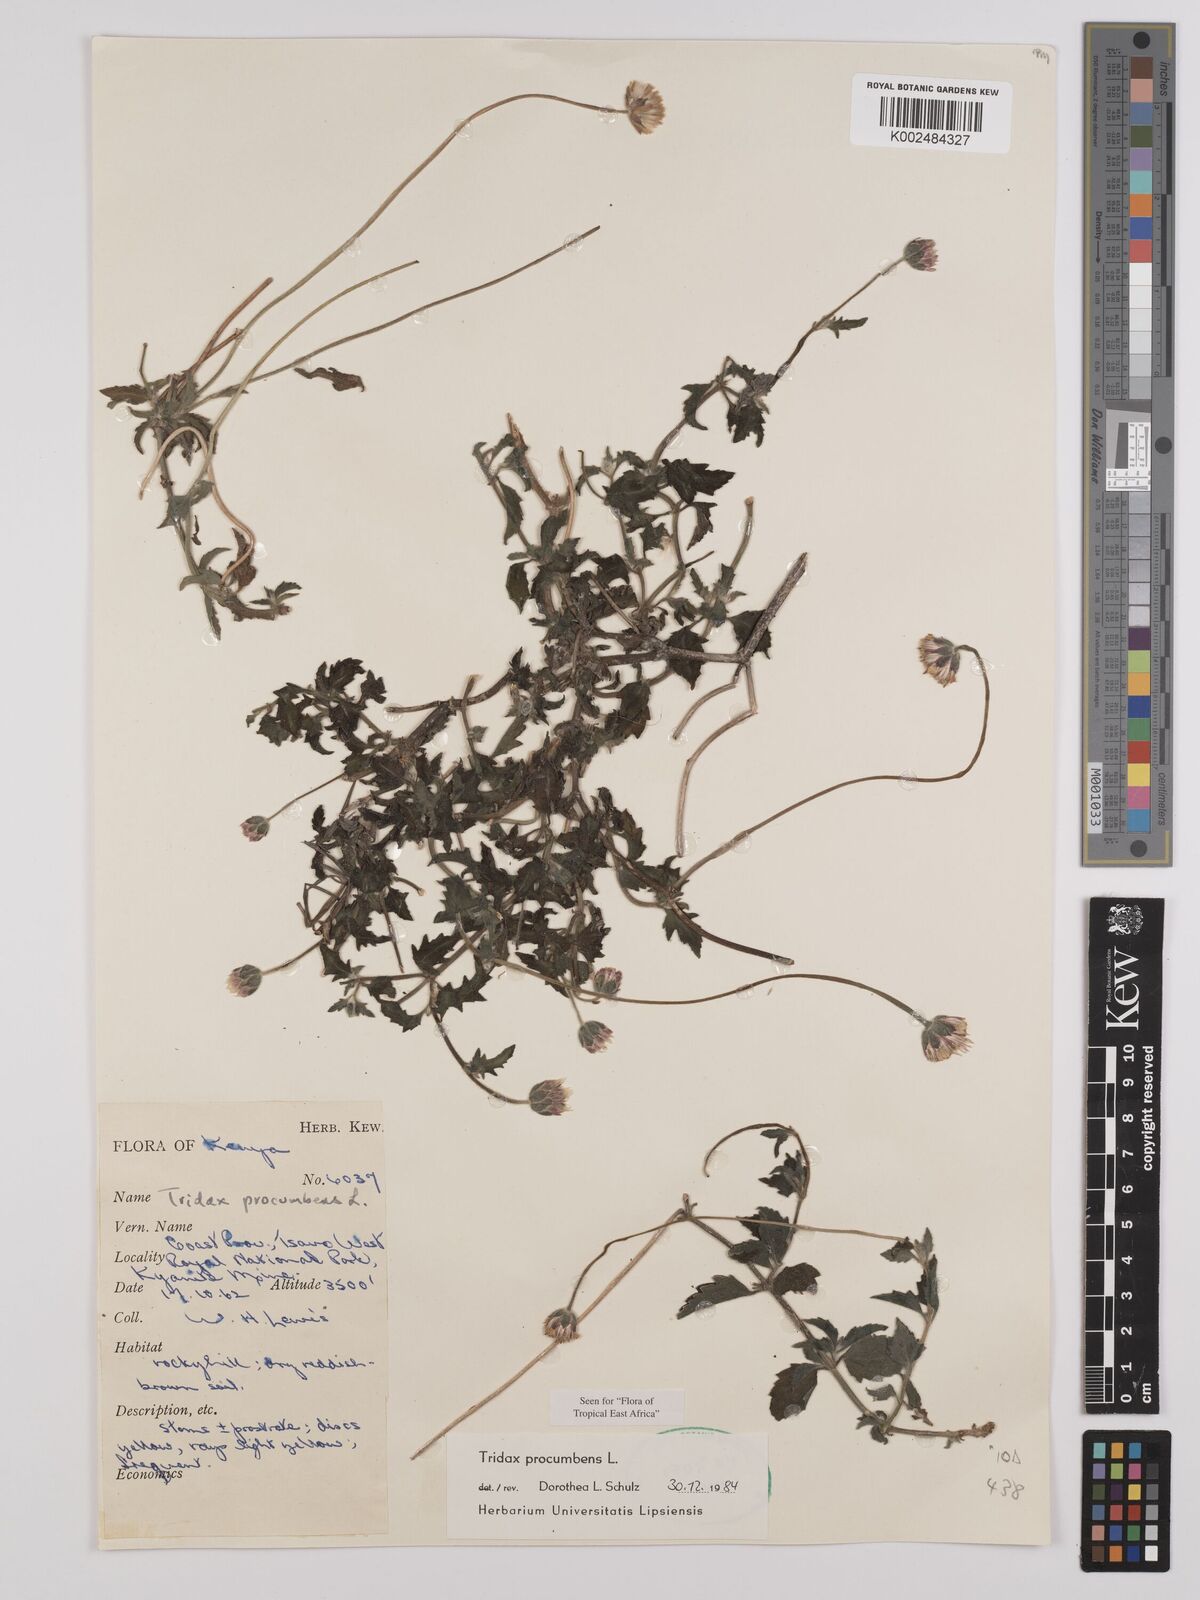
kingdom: Plantae
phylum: Tracheophyta
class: Magnoliopsida
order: Asterales
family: Asteraceae
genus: Tridax
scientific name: Tridax procumbens
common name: Coatbuttons
